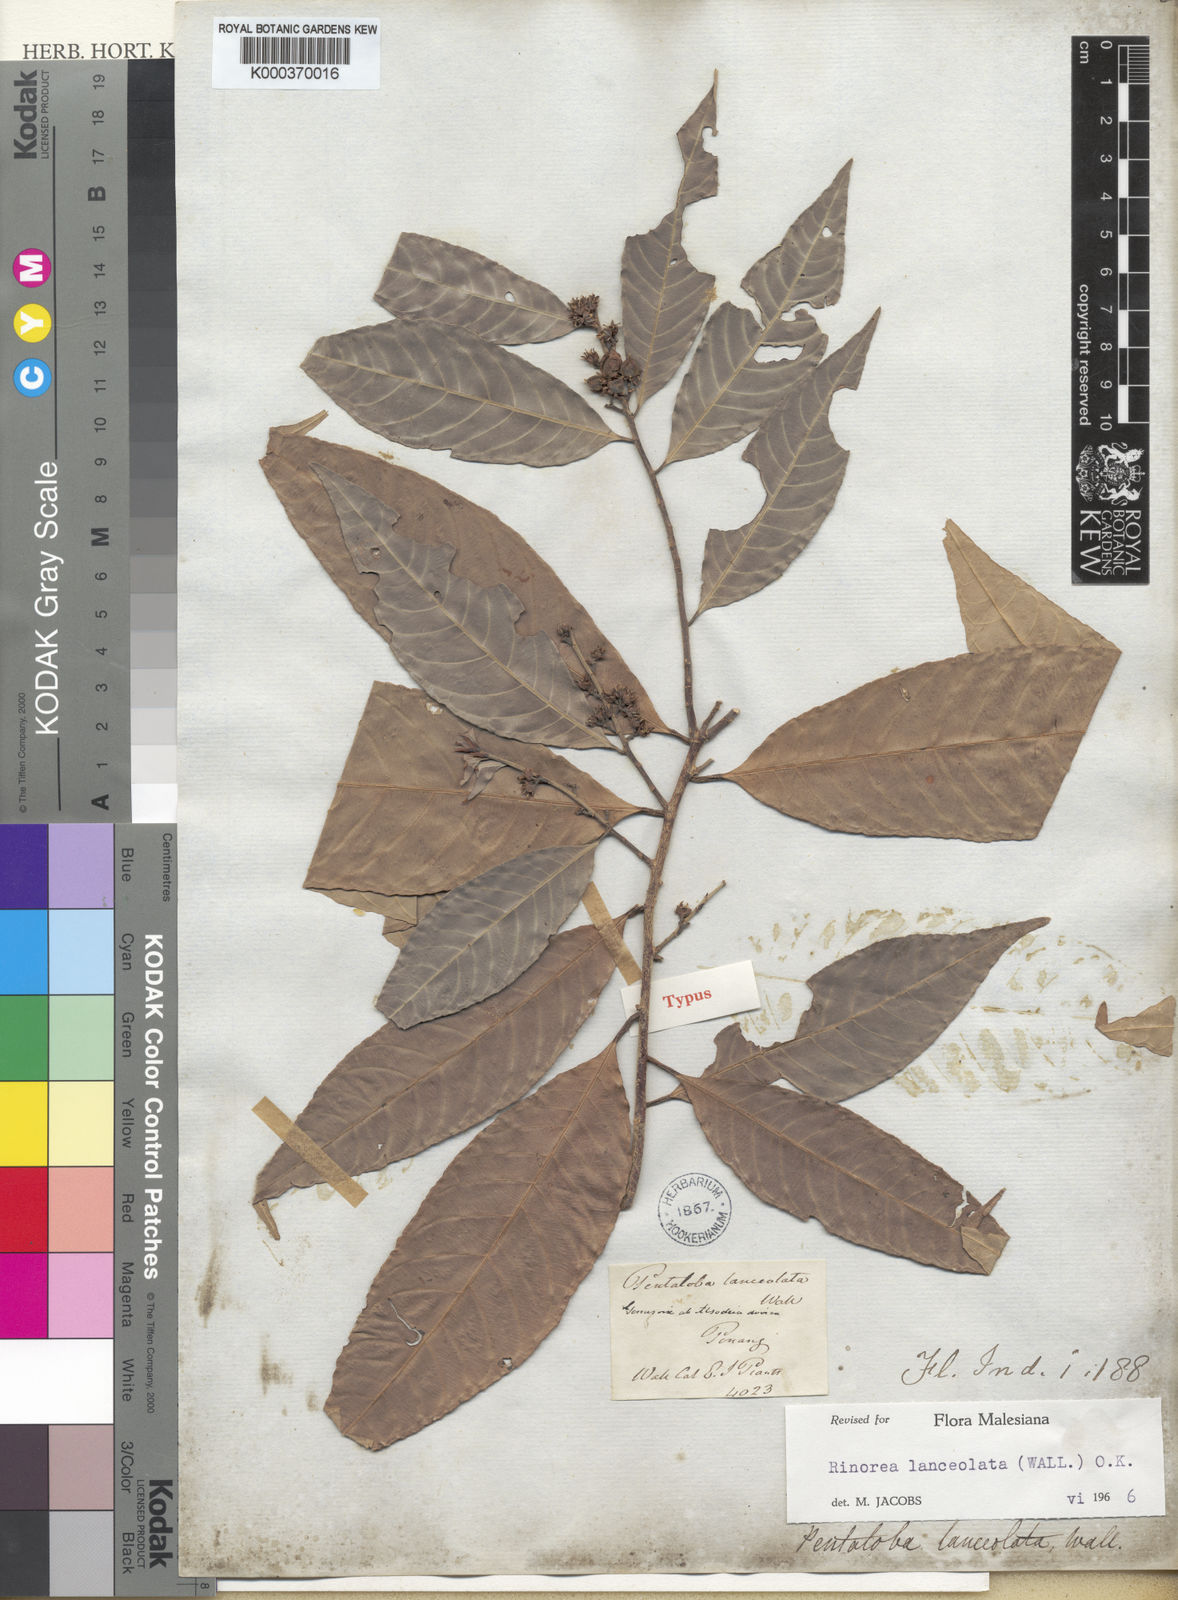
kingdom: Plantae
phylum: Tracheophyta
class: Magnoliopsida
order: Malpighiales
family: Violaceae
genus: Rinorea
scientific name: Rinorea lanceolata
